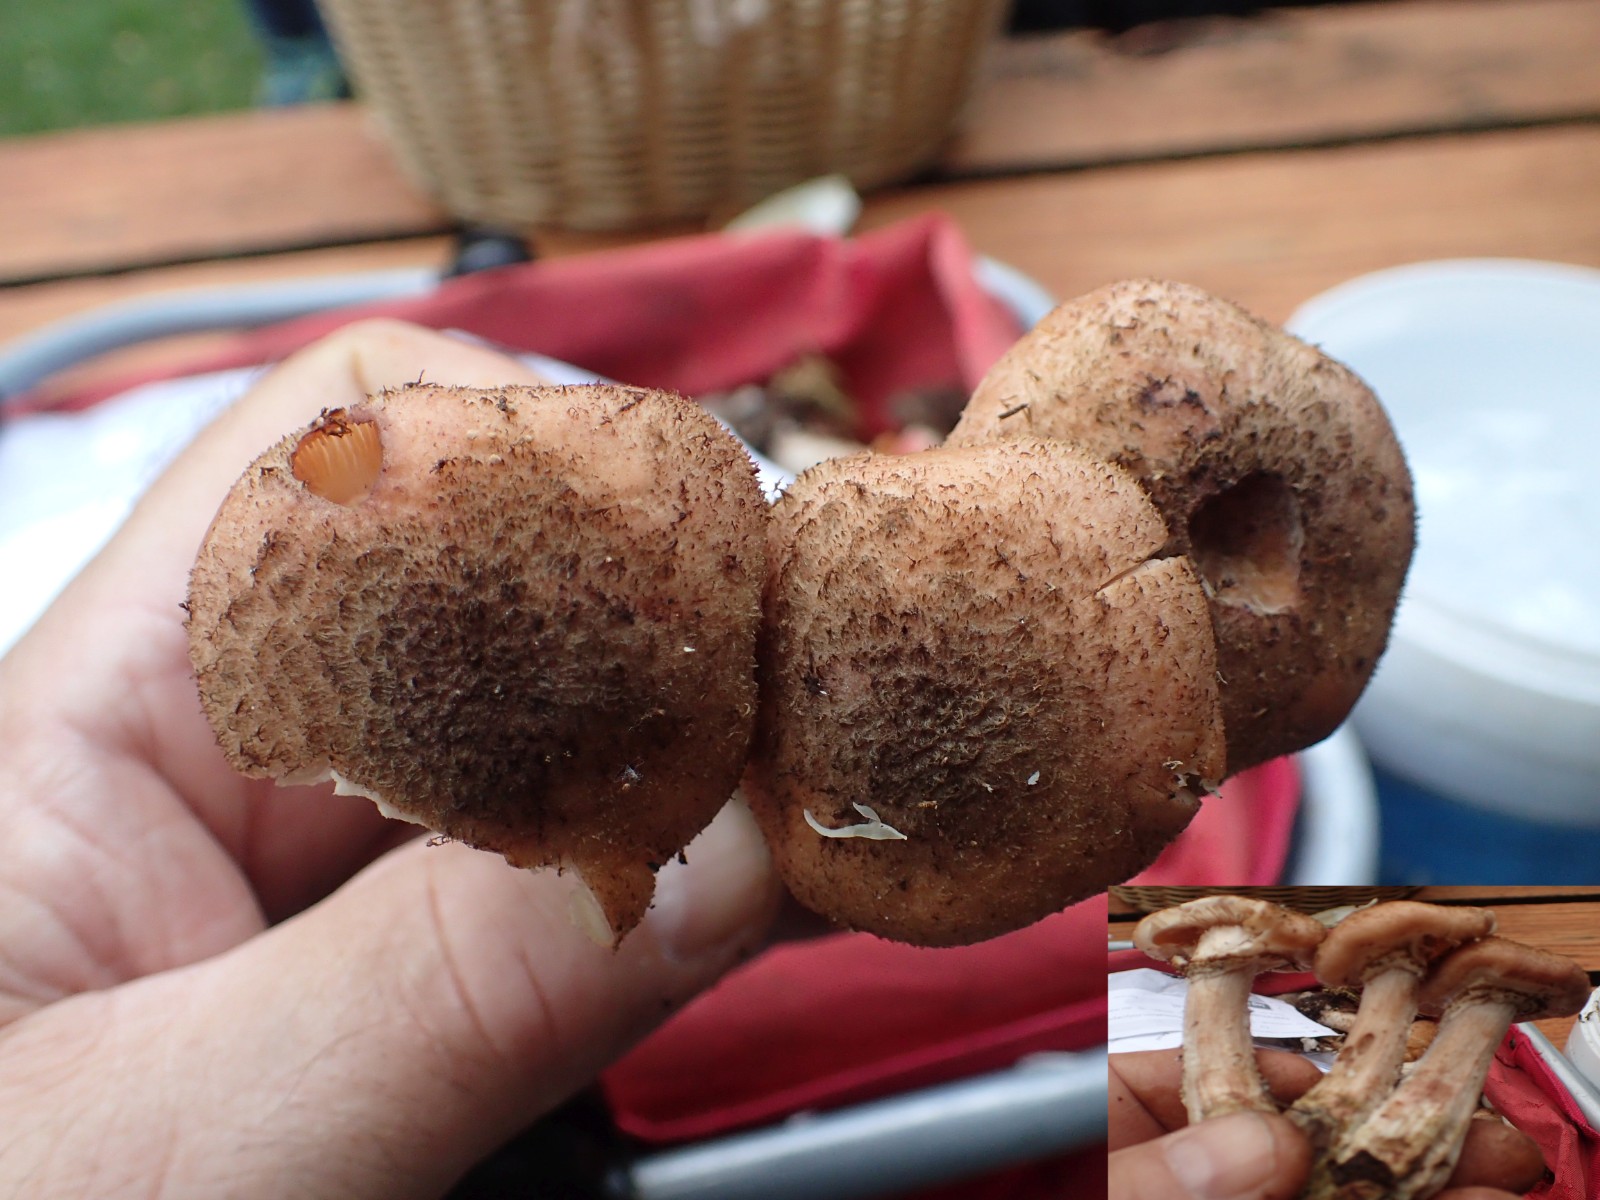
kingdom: Fungi
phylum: Basidiomycota
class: Agaricomycetes
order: Agaricales
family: Physalacriaceae
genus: Armillaria
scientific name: Armillaria ostoyae
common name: mørk honningsvamp
